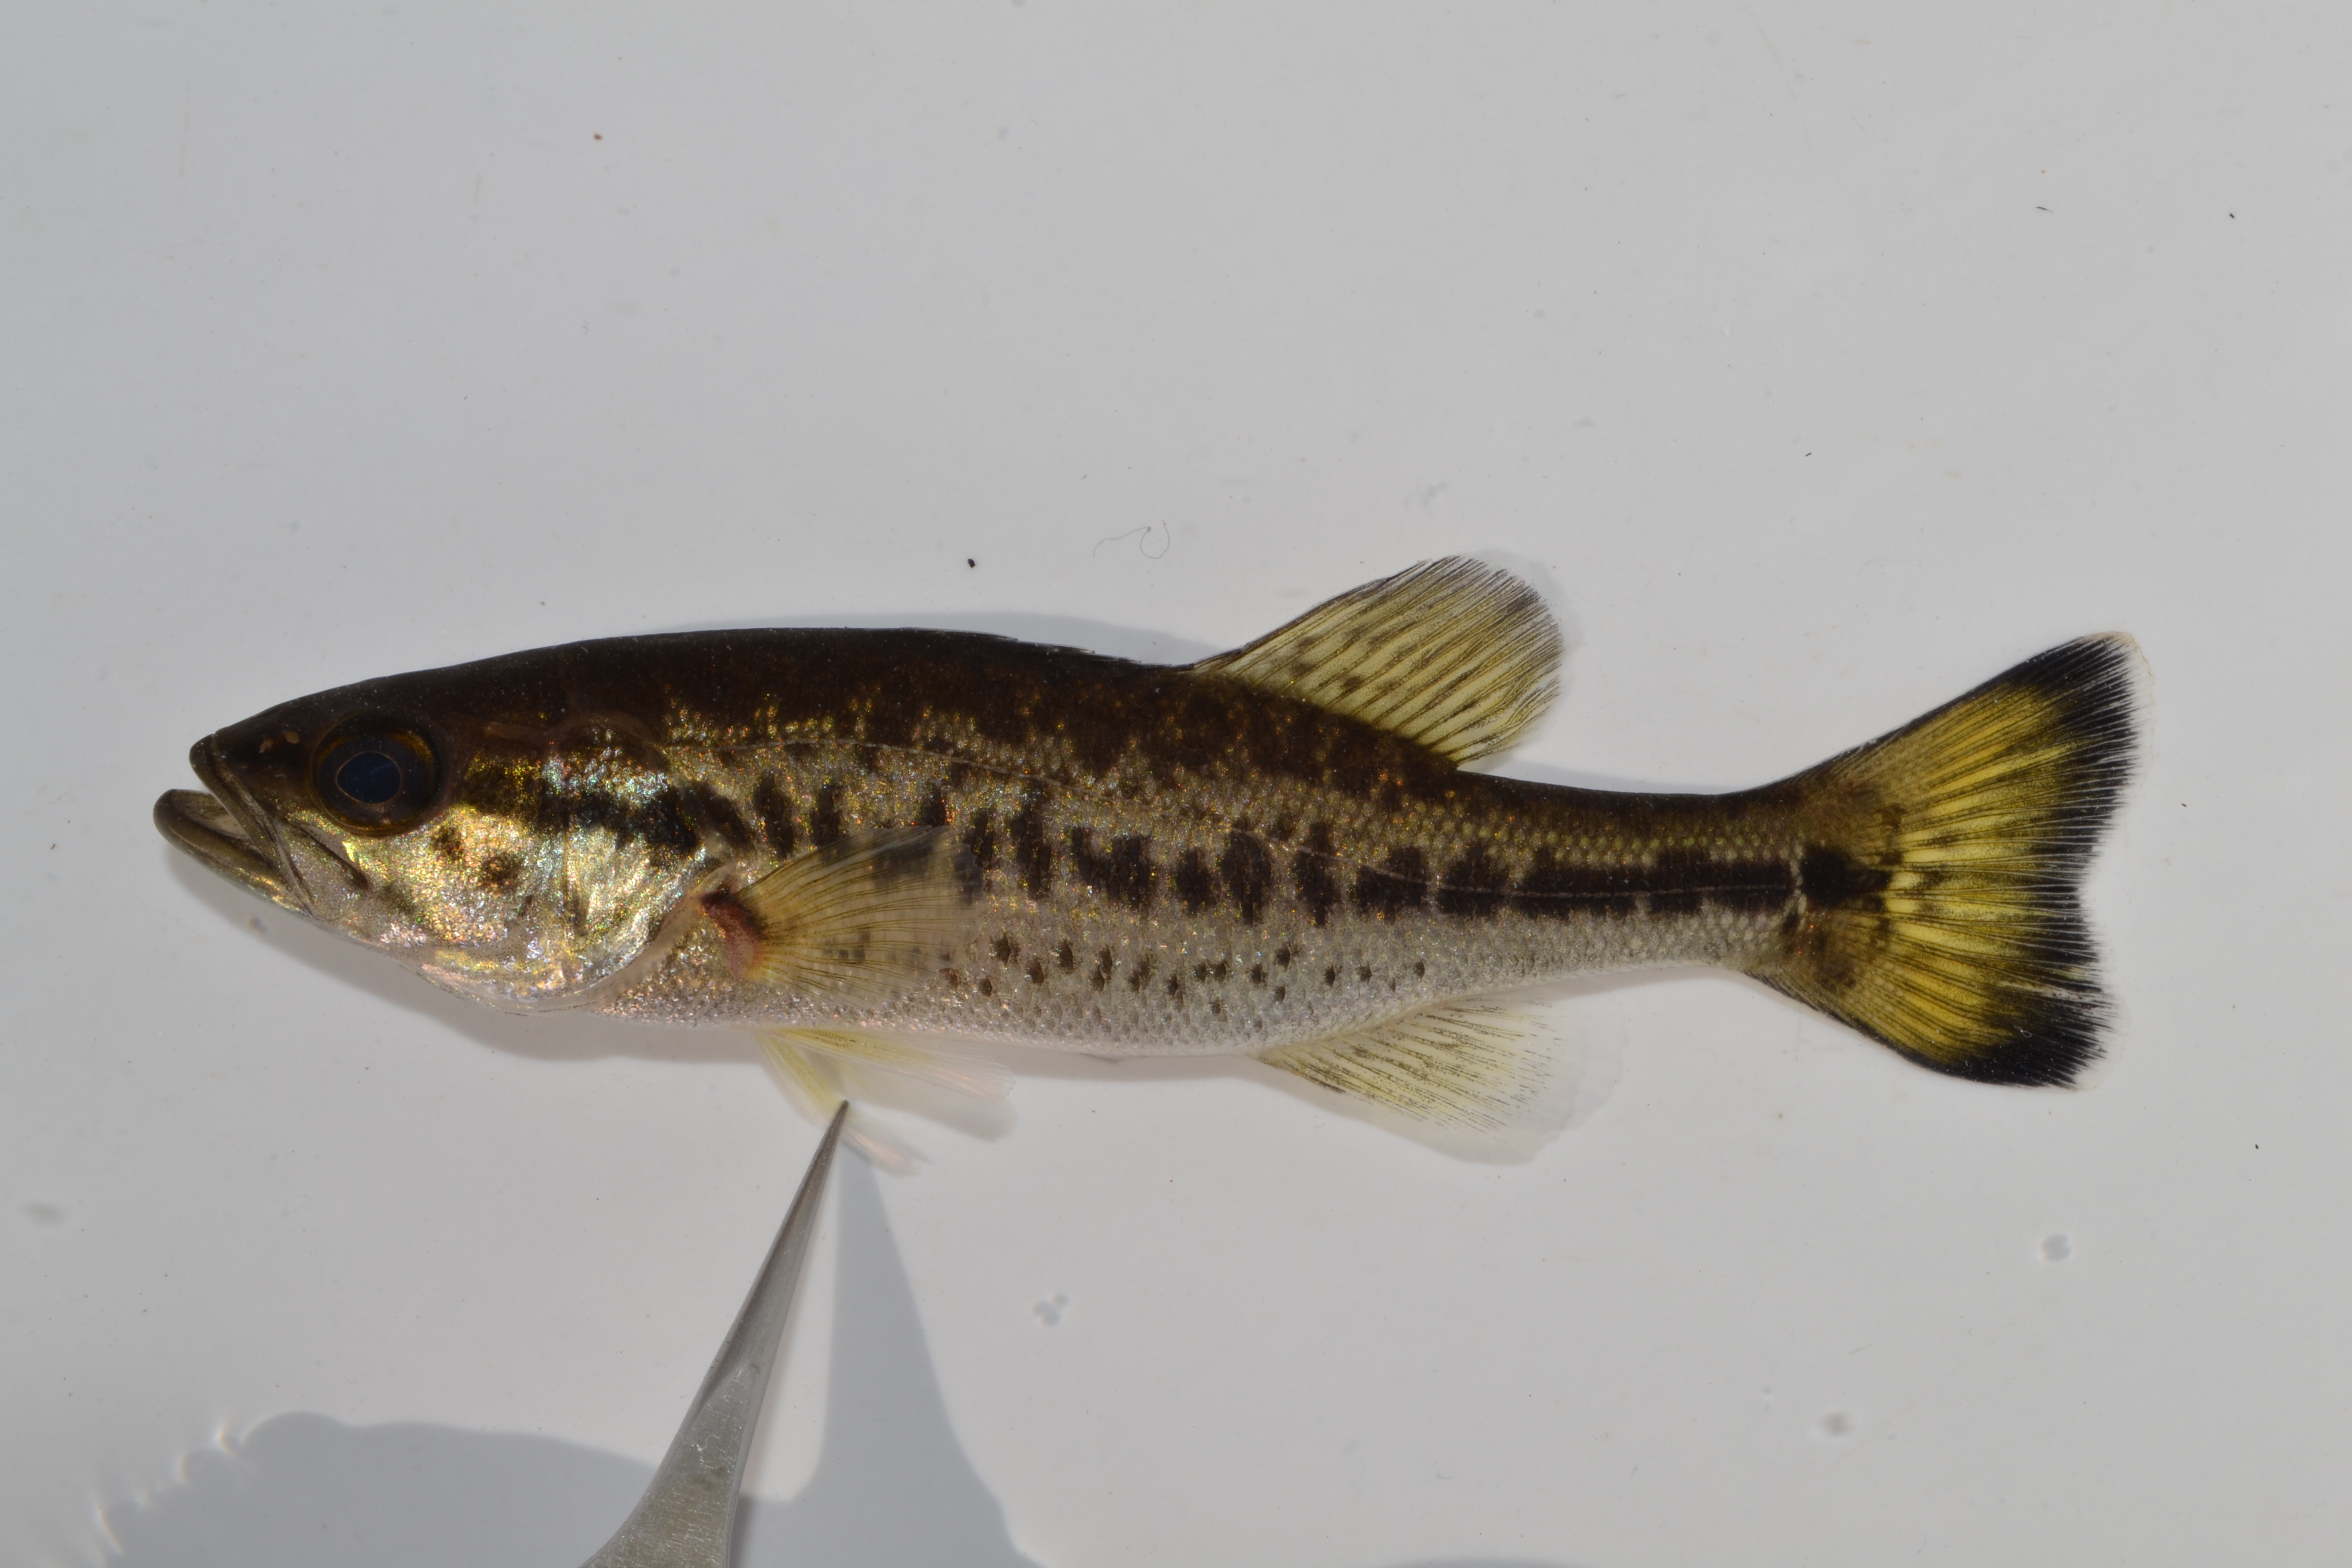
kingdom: Animalia
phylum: Chordata
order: Perciformes
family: Centrarchidae
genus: Micropterus
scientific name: Micropterus salmoides
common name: Largemouth bass
